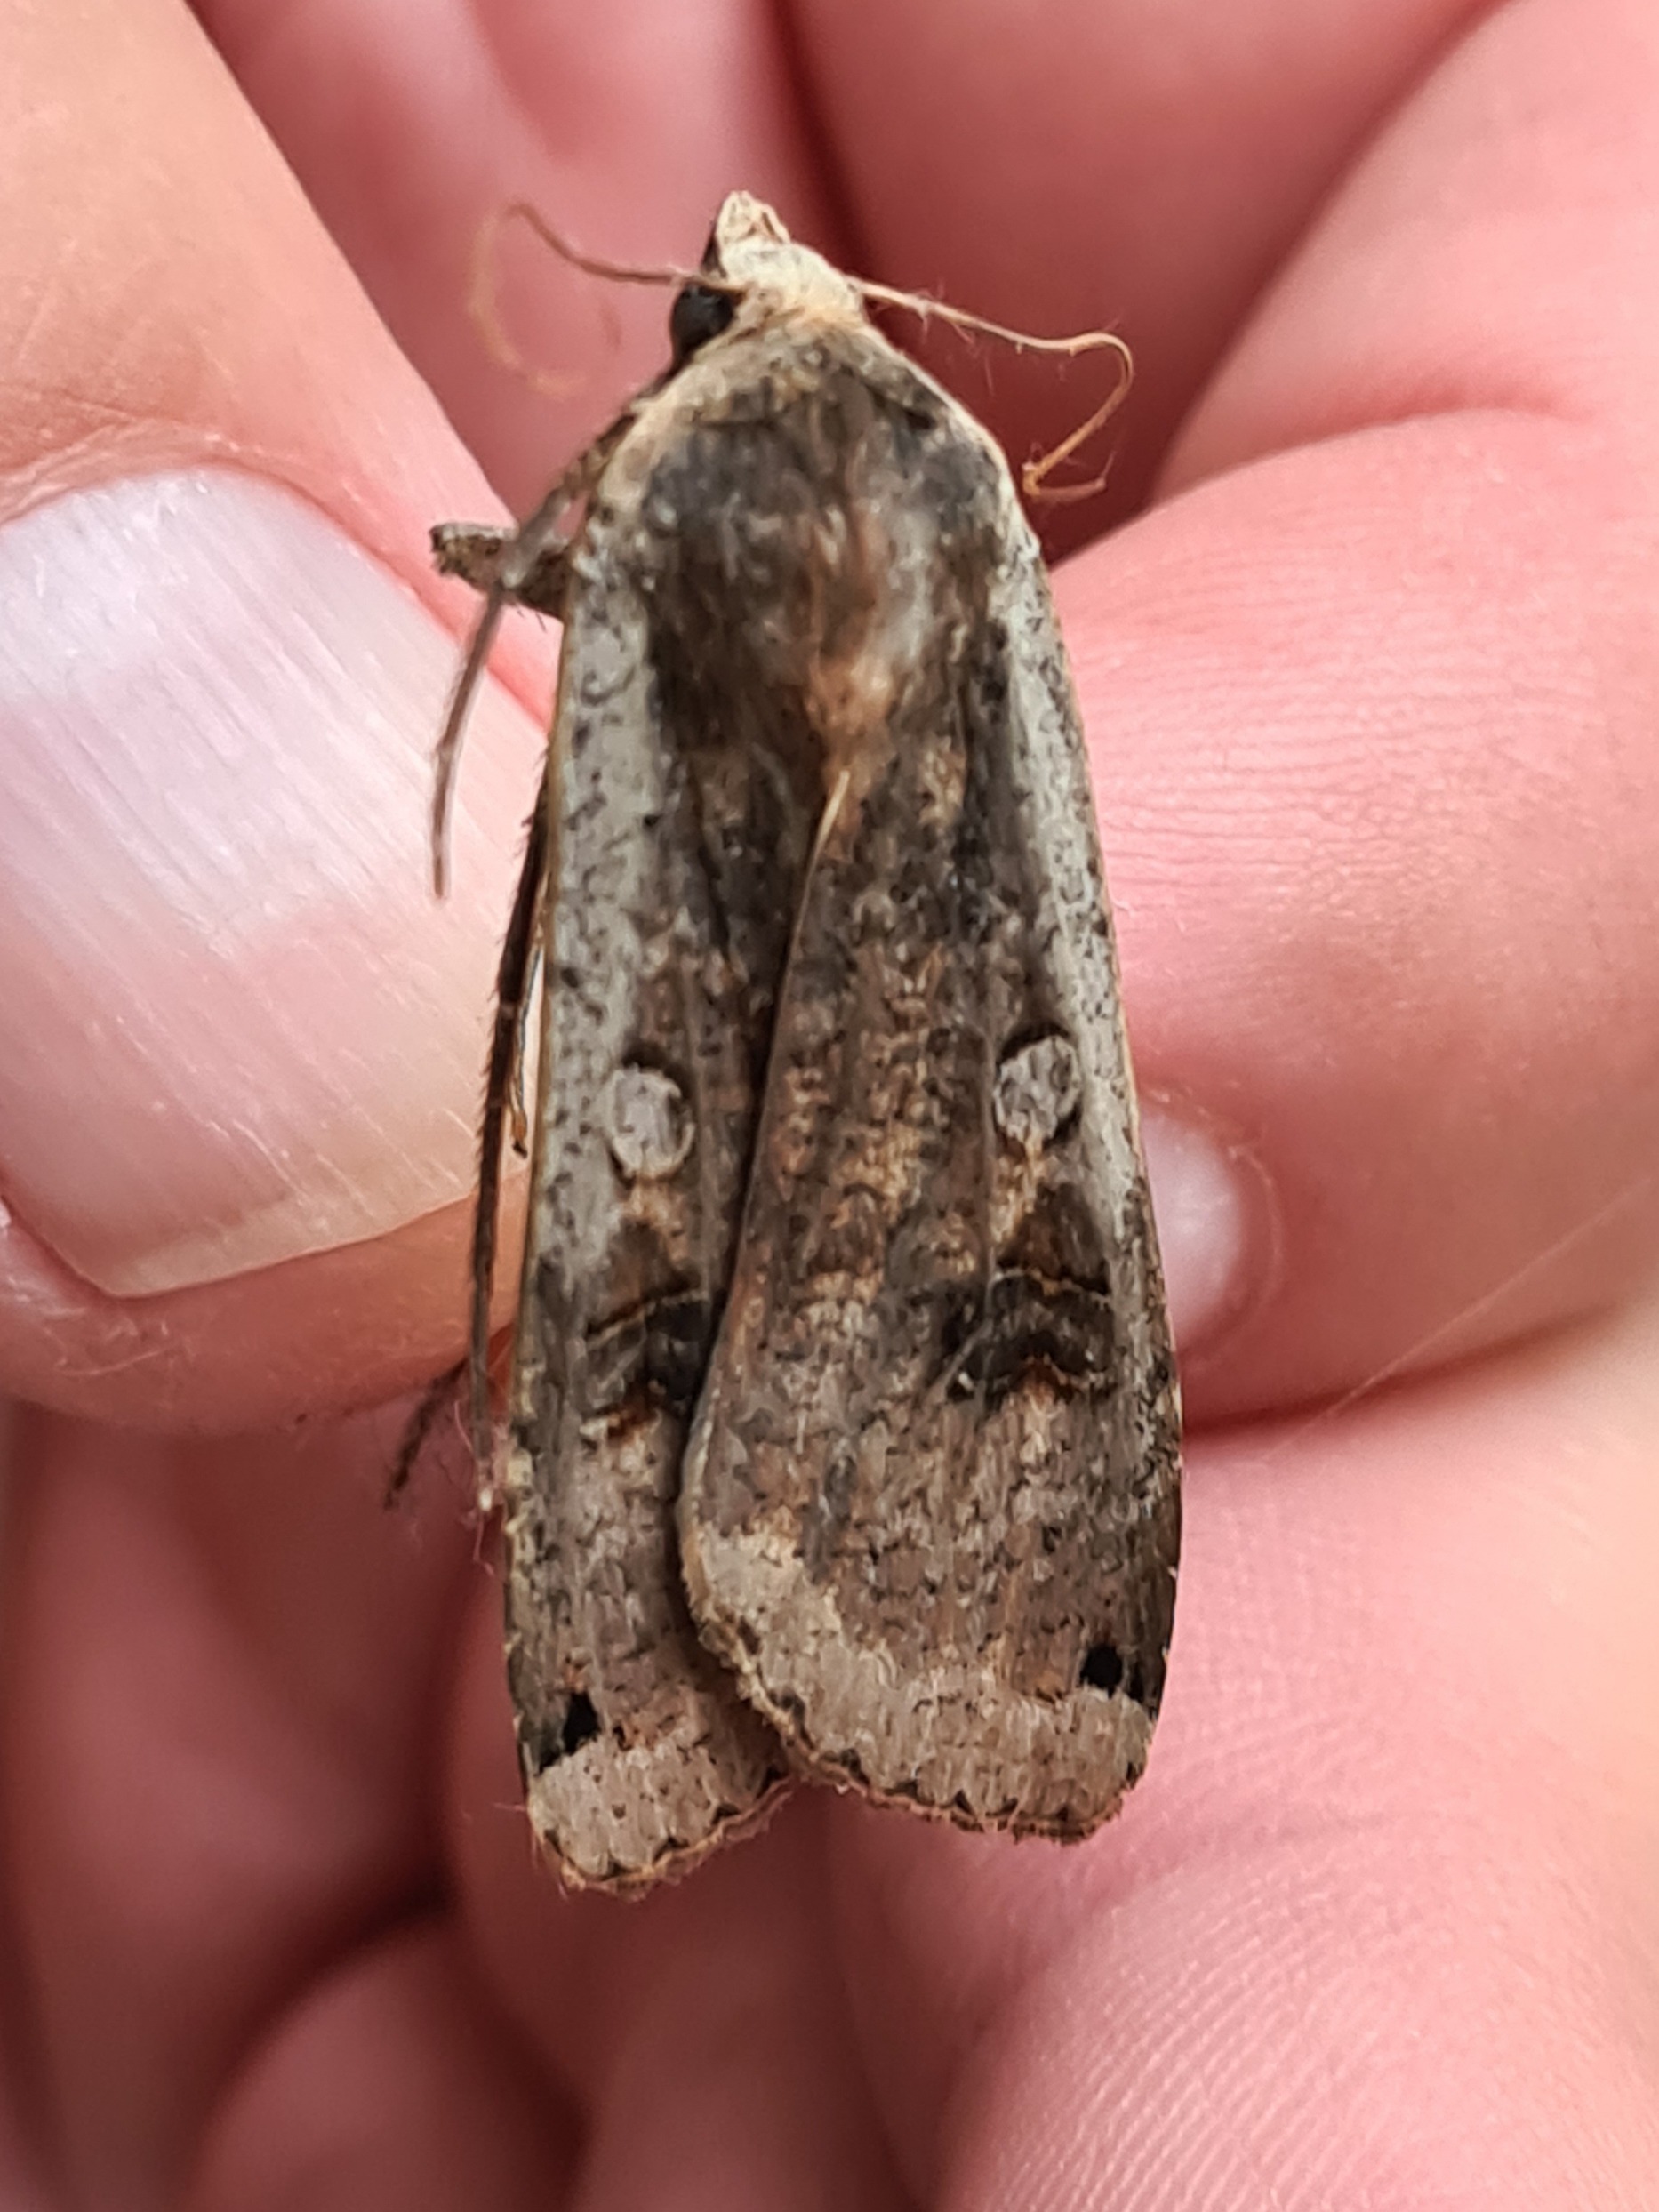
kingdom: Animalia
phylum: Arthropoda
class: Insecta
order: Lepidoptera
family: Noctuidae
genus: Noctua
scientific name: Noctua pronuba
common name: Stor smutugle
